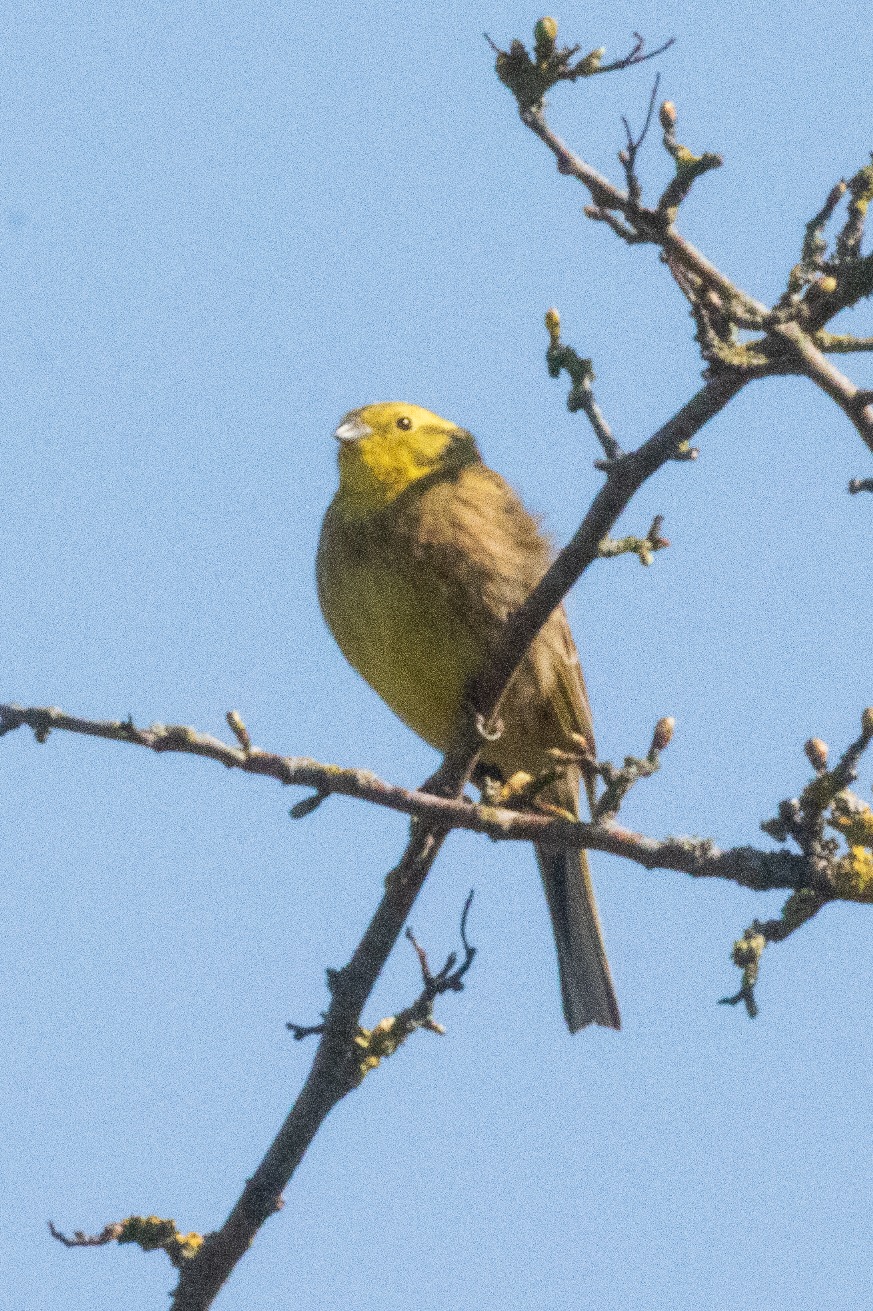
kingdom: Animalia
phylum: Chordata
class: Aves
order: Passeriformes
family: Emberizidae
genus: Emberiza
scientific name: Emberiza citrinella
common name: Gulspurv
